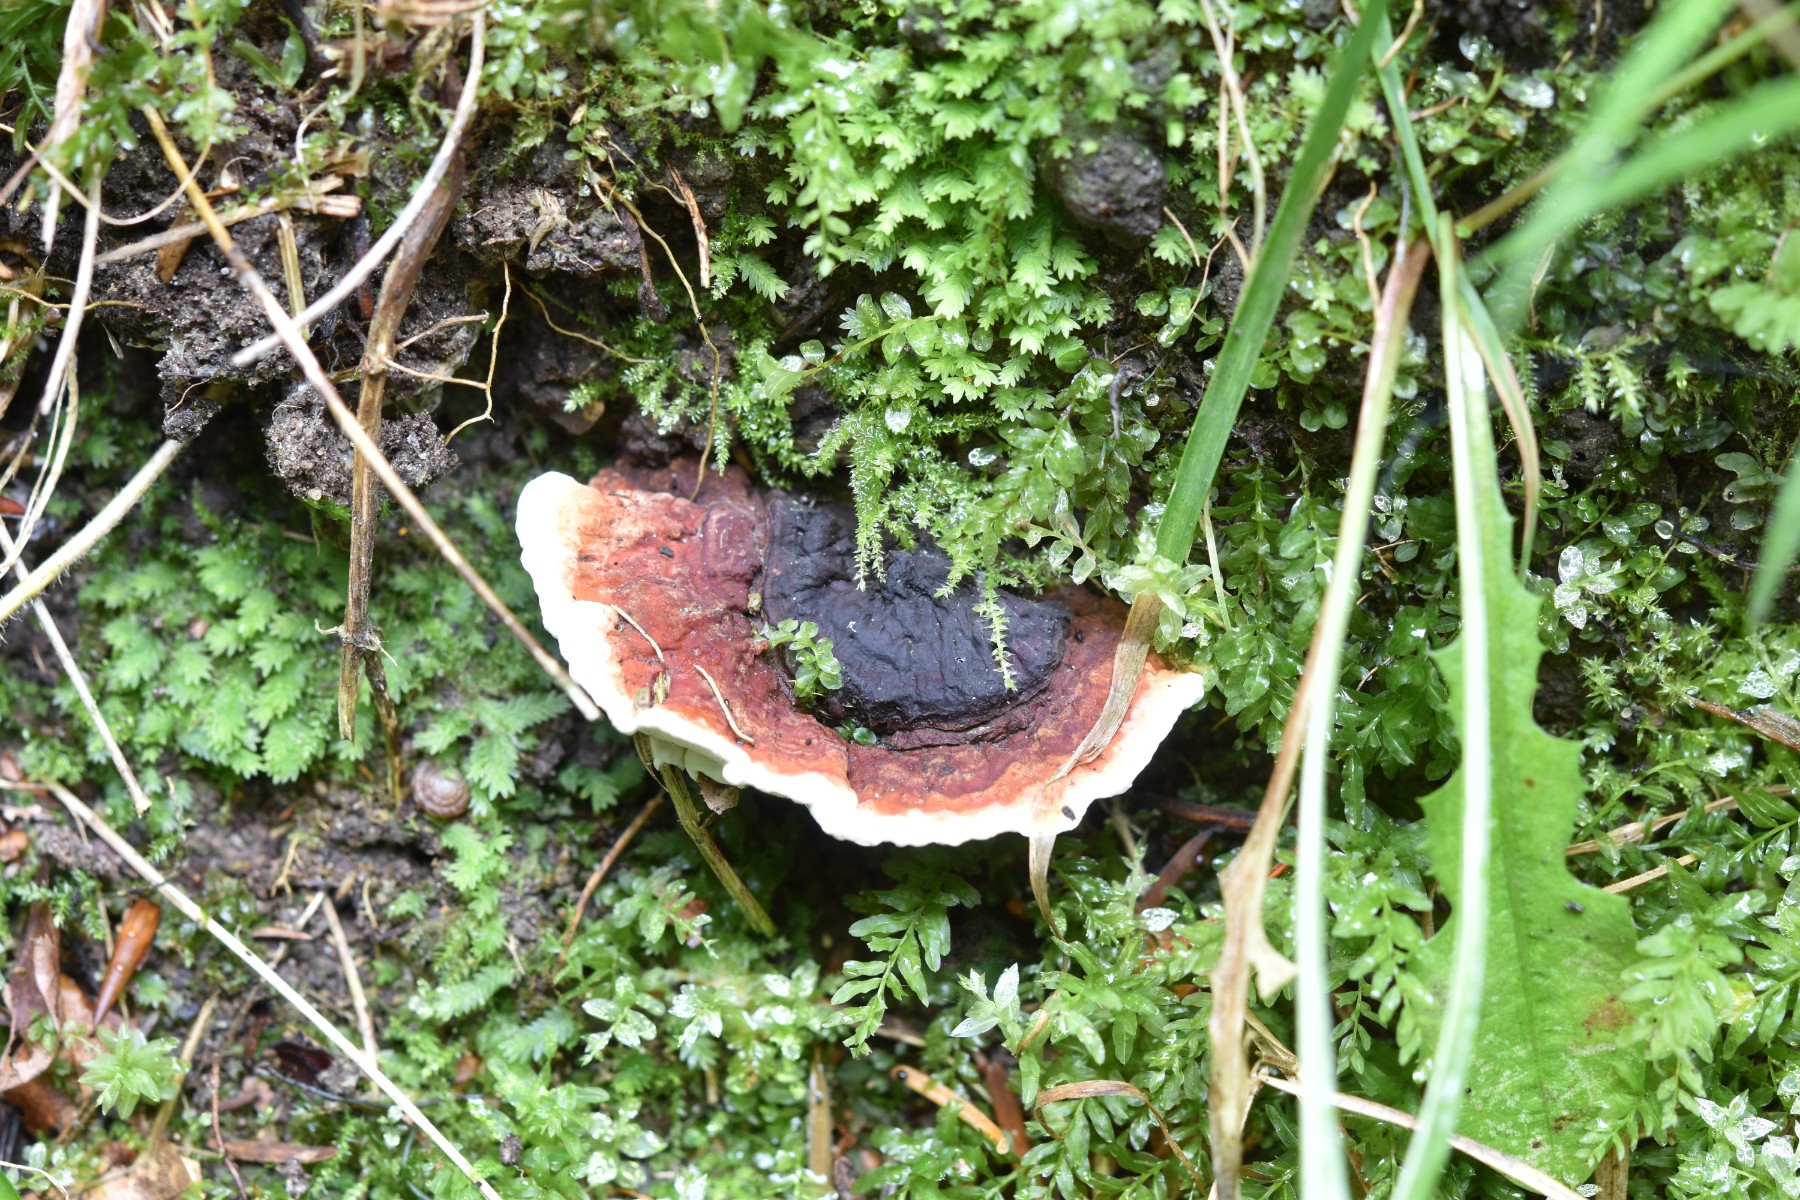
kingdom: Fungi
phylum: Basidiomycota
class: Agaricomycetes
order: Russulales
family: Bondarzewiaceae
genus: Heterobasidion
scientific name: Heterobasidion annosum
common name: almindelig rodfordærver
